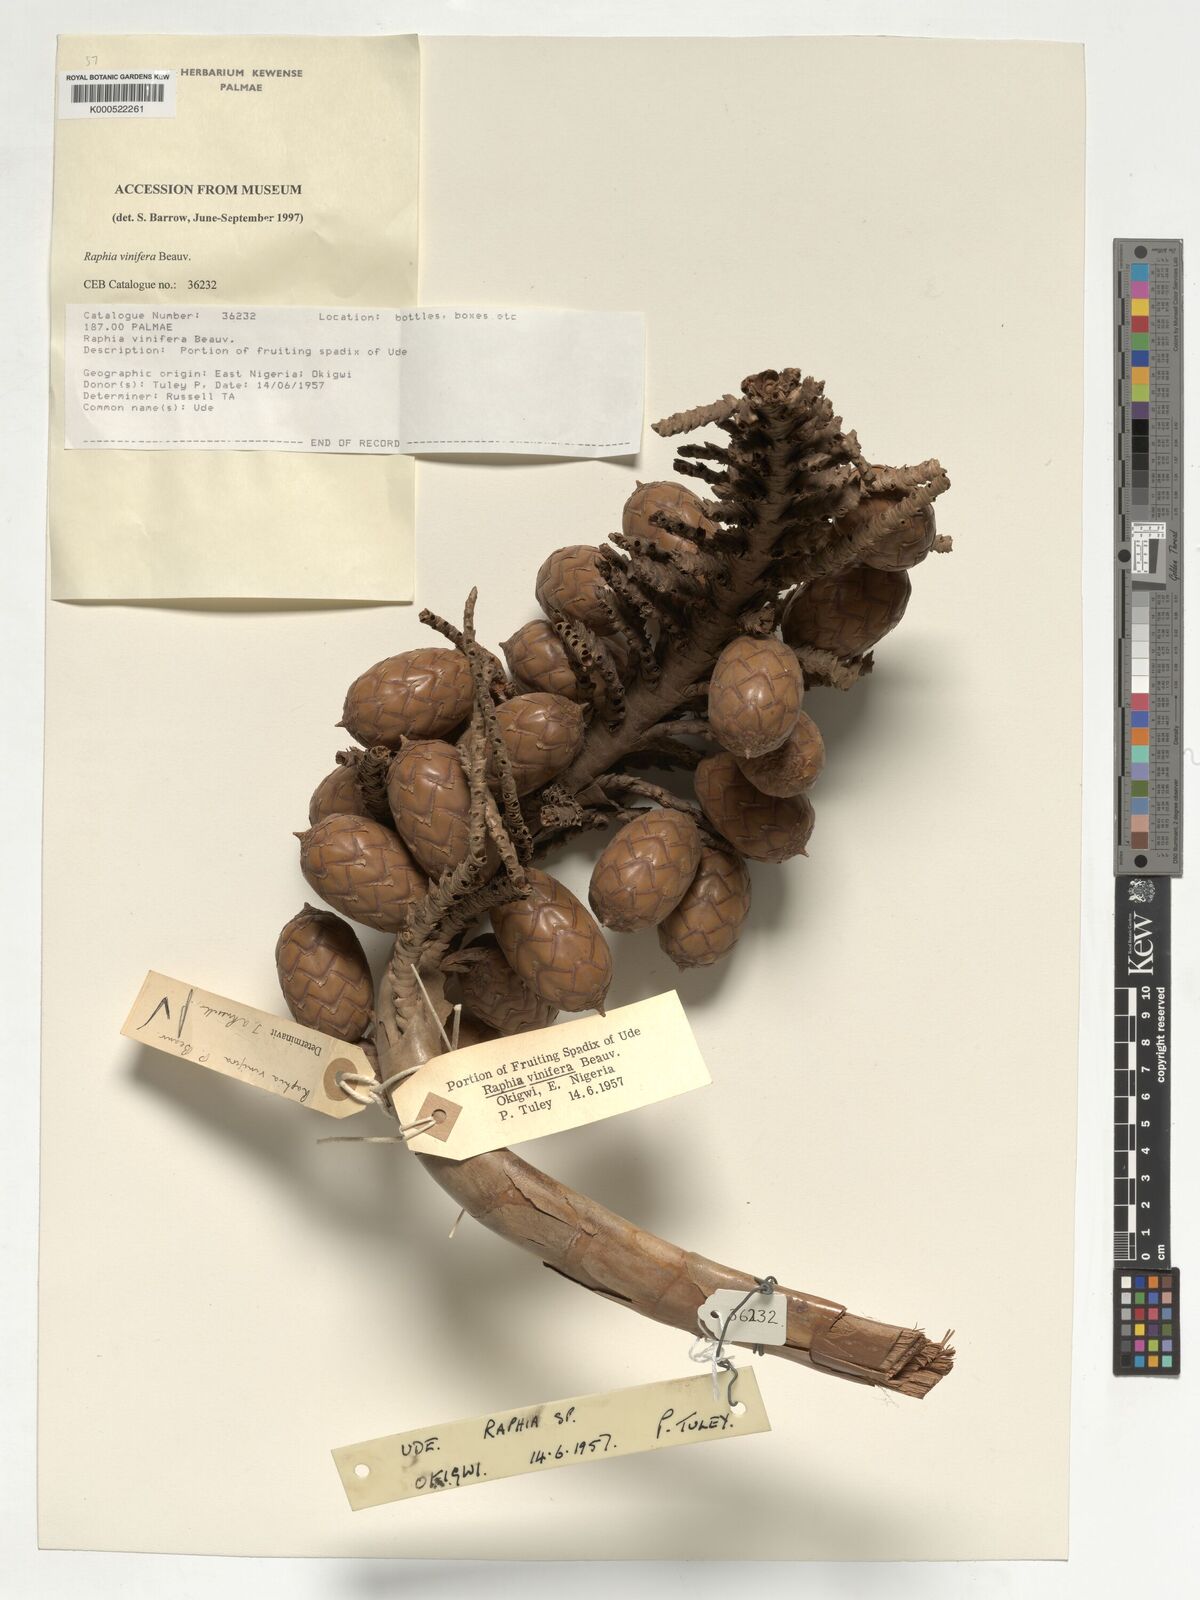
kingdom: Plantae
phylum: Tracheophyta
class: Liliopsida
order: Arecales
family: Arecaceae
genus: Raphia
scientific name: Raphia vinifera
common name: Raphia palm
